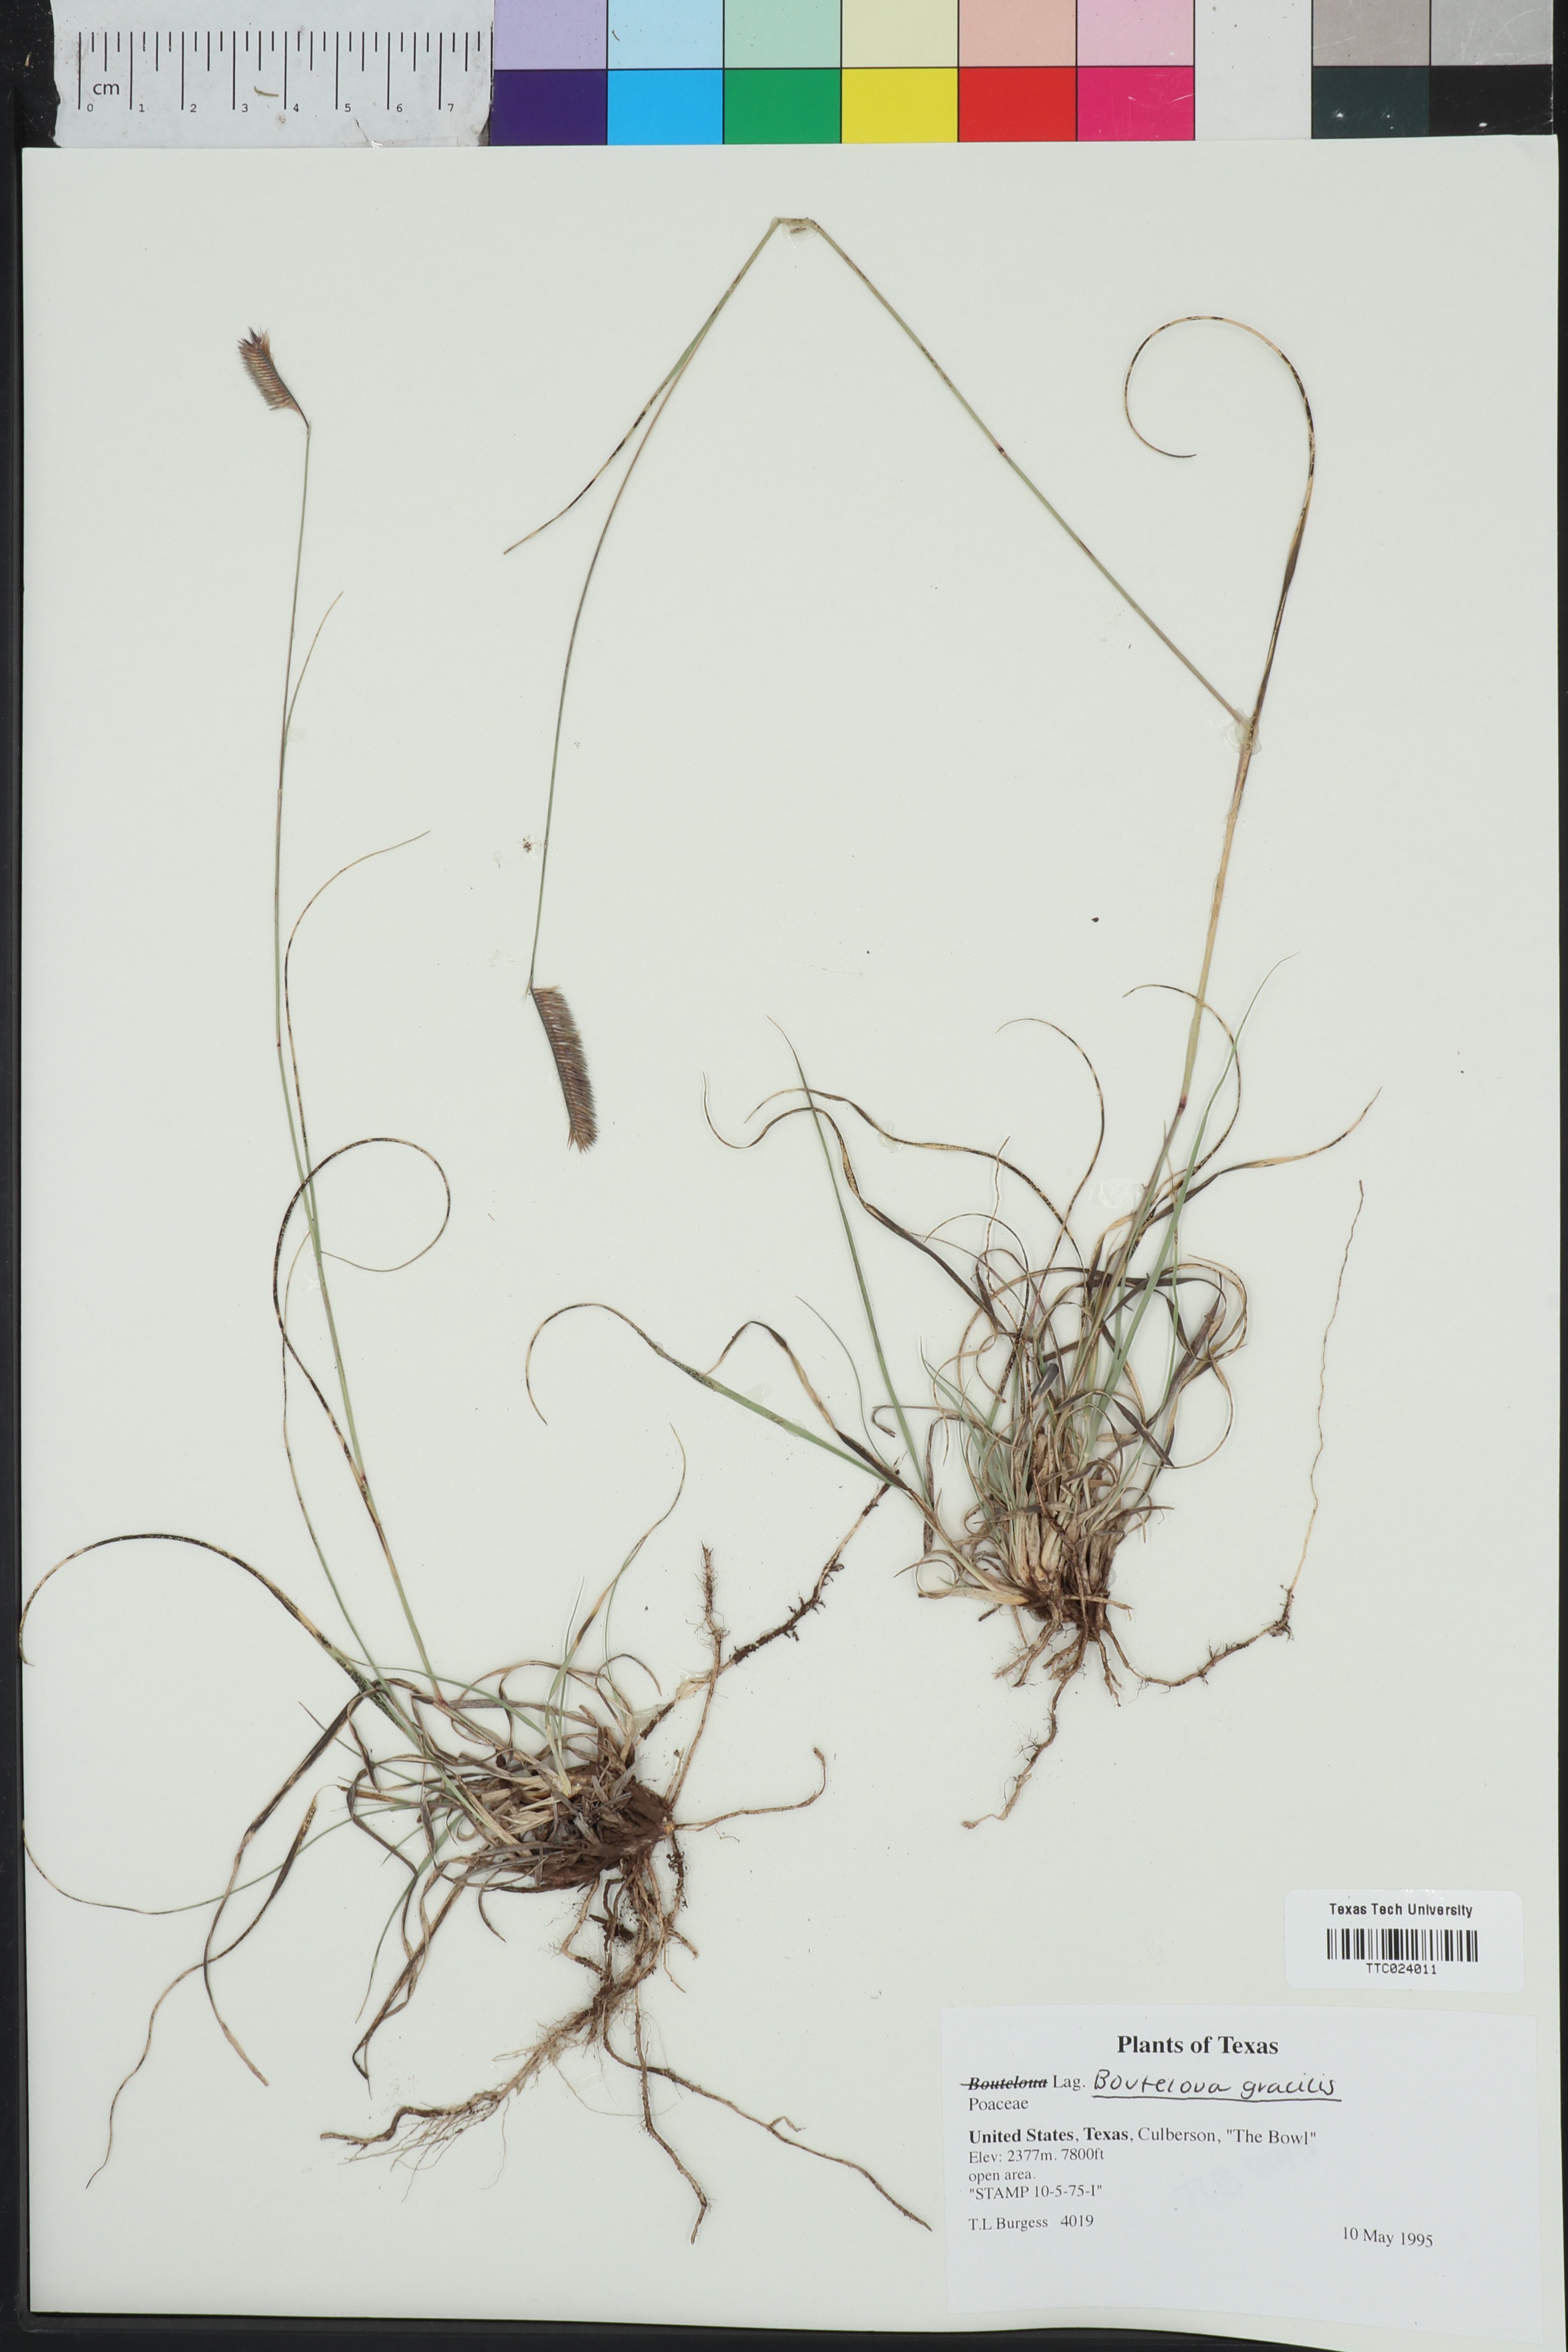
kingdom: Plantae
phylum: Tracheophyta
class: Liliopsida
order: Poales
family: Poaceae
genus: Bouteloua
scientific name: Bouteloua
